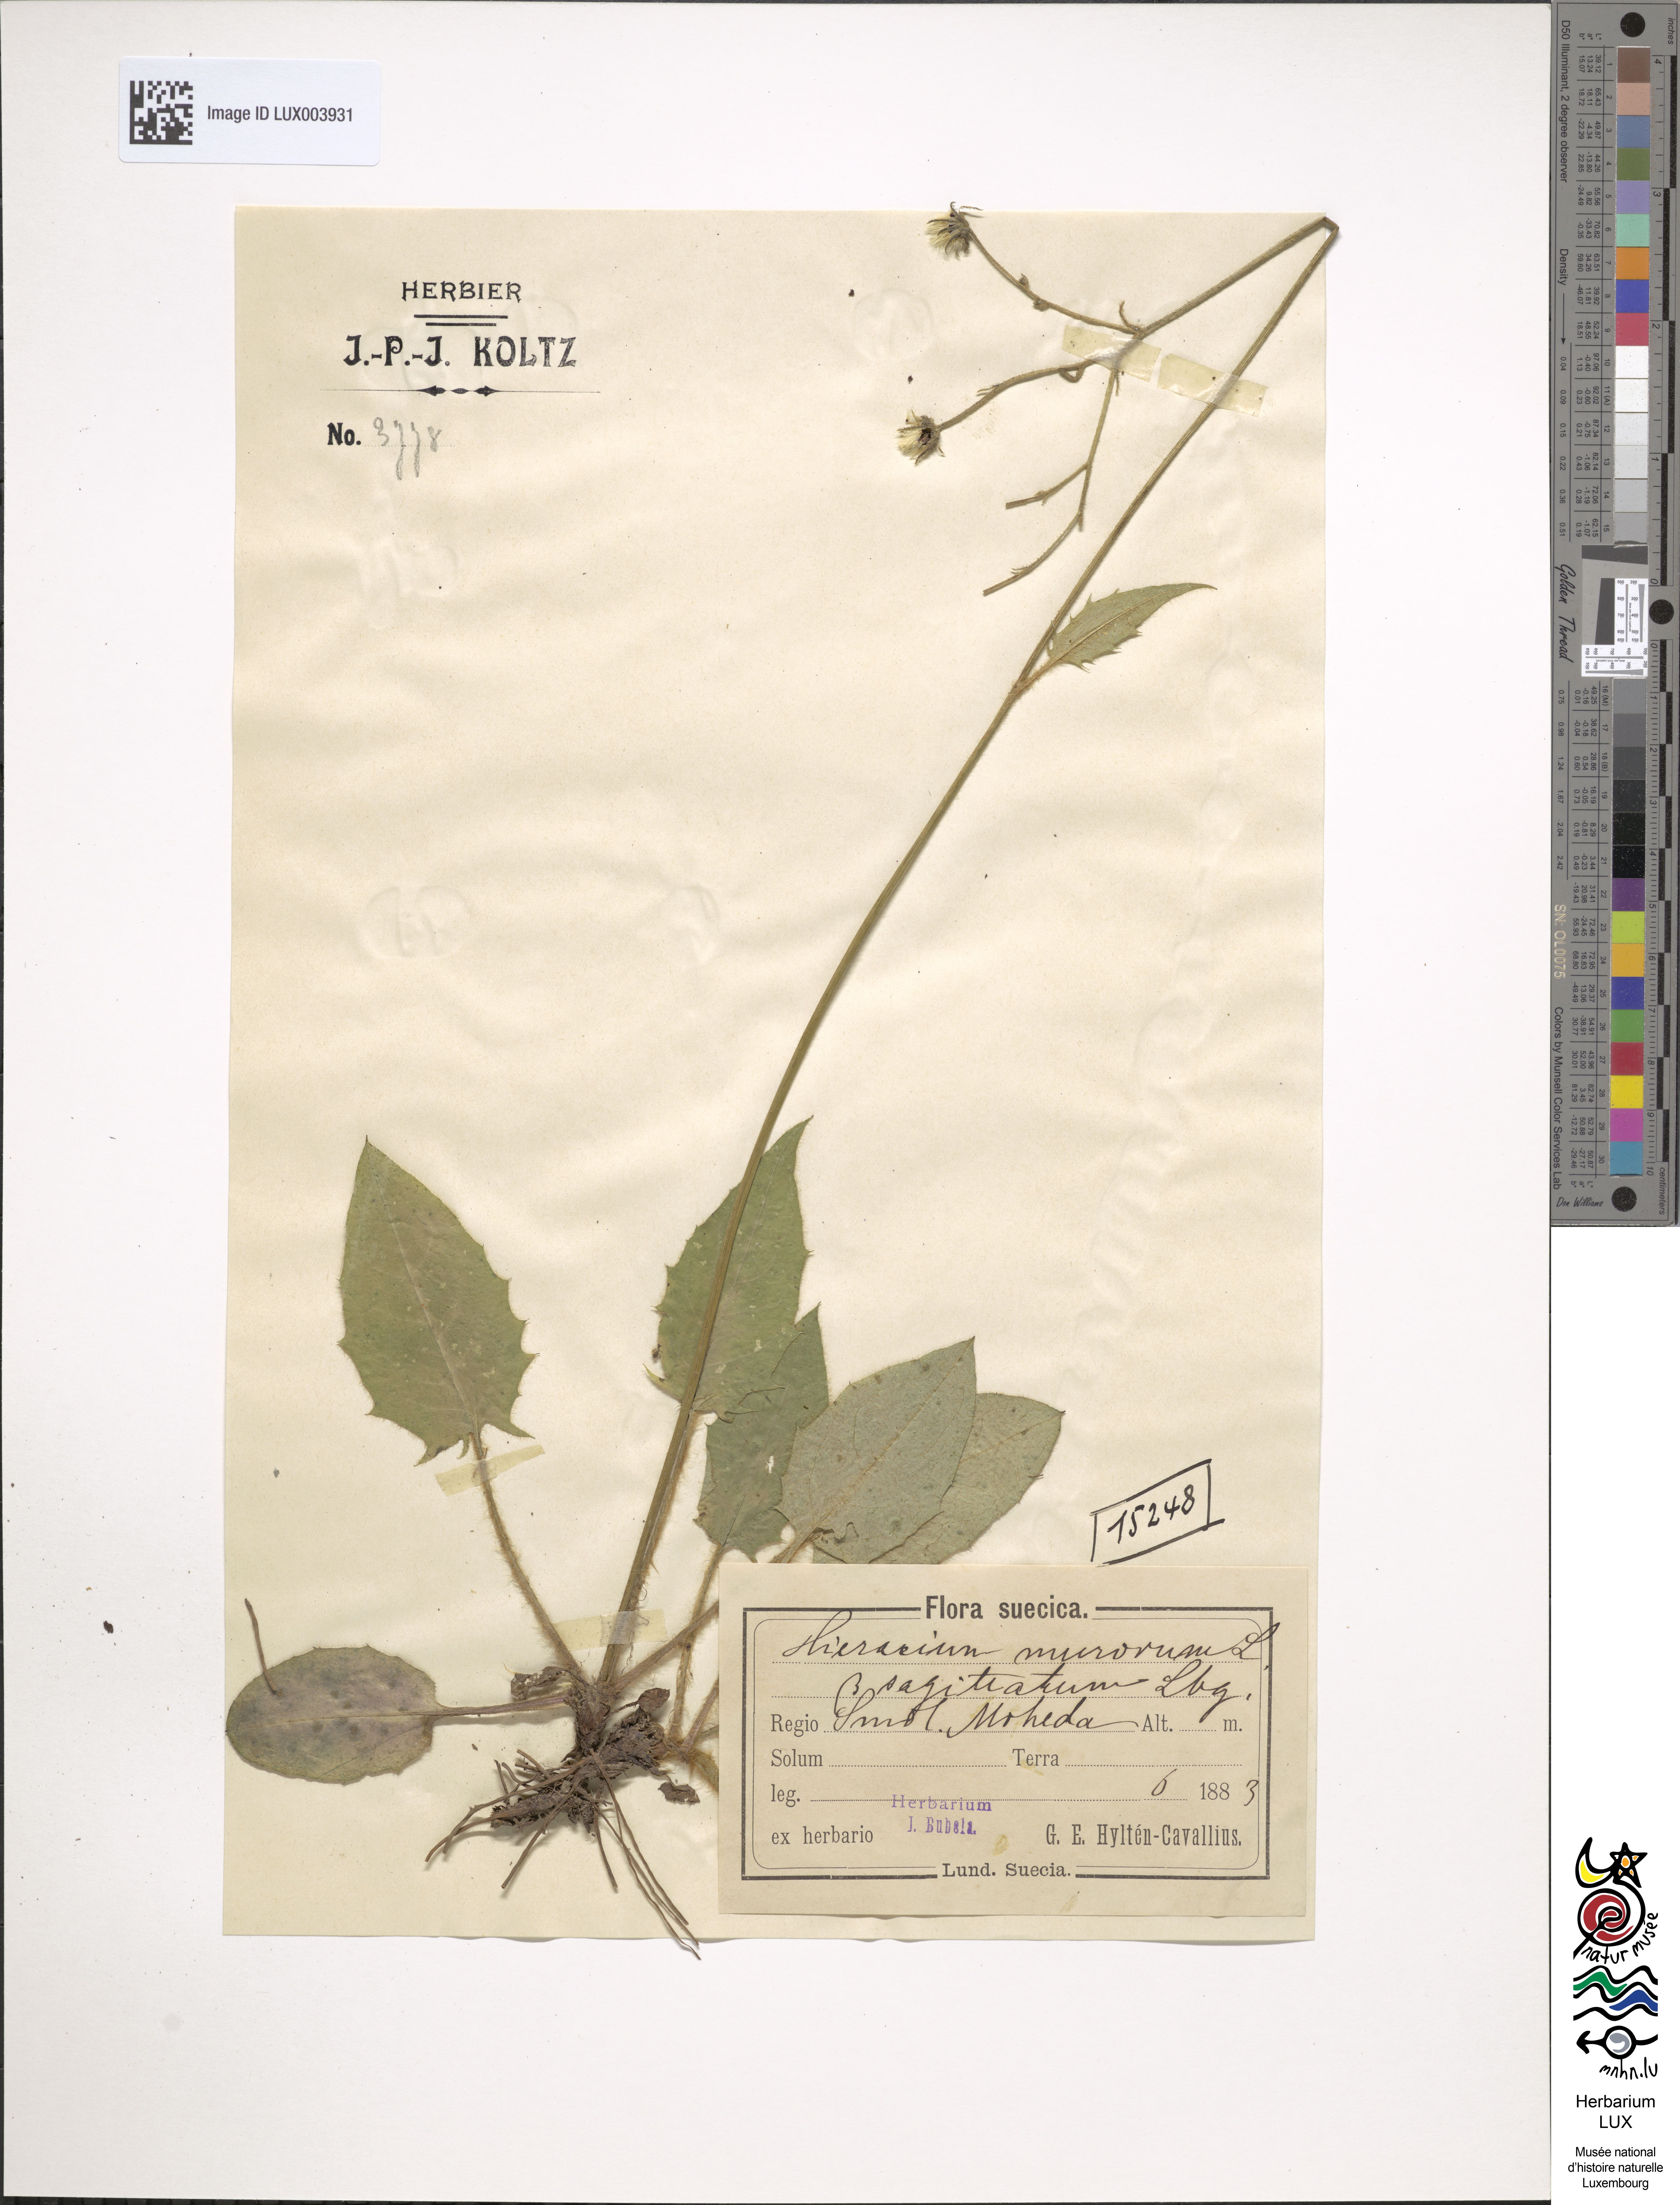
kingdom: Plantae
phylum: Tracheophyta
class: Magnoliopsida
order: Asterales
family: Asteraceae
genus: Hieracium
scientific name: Hieracium murorum
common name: Wall hawkweed
